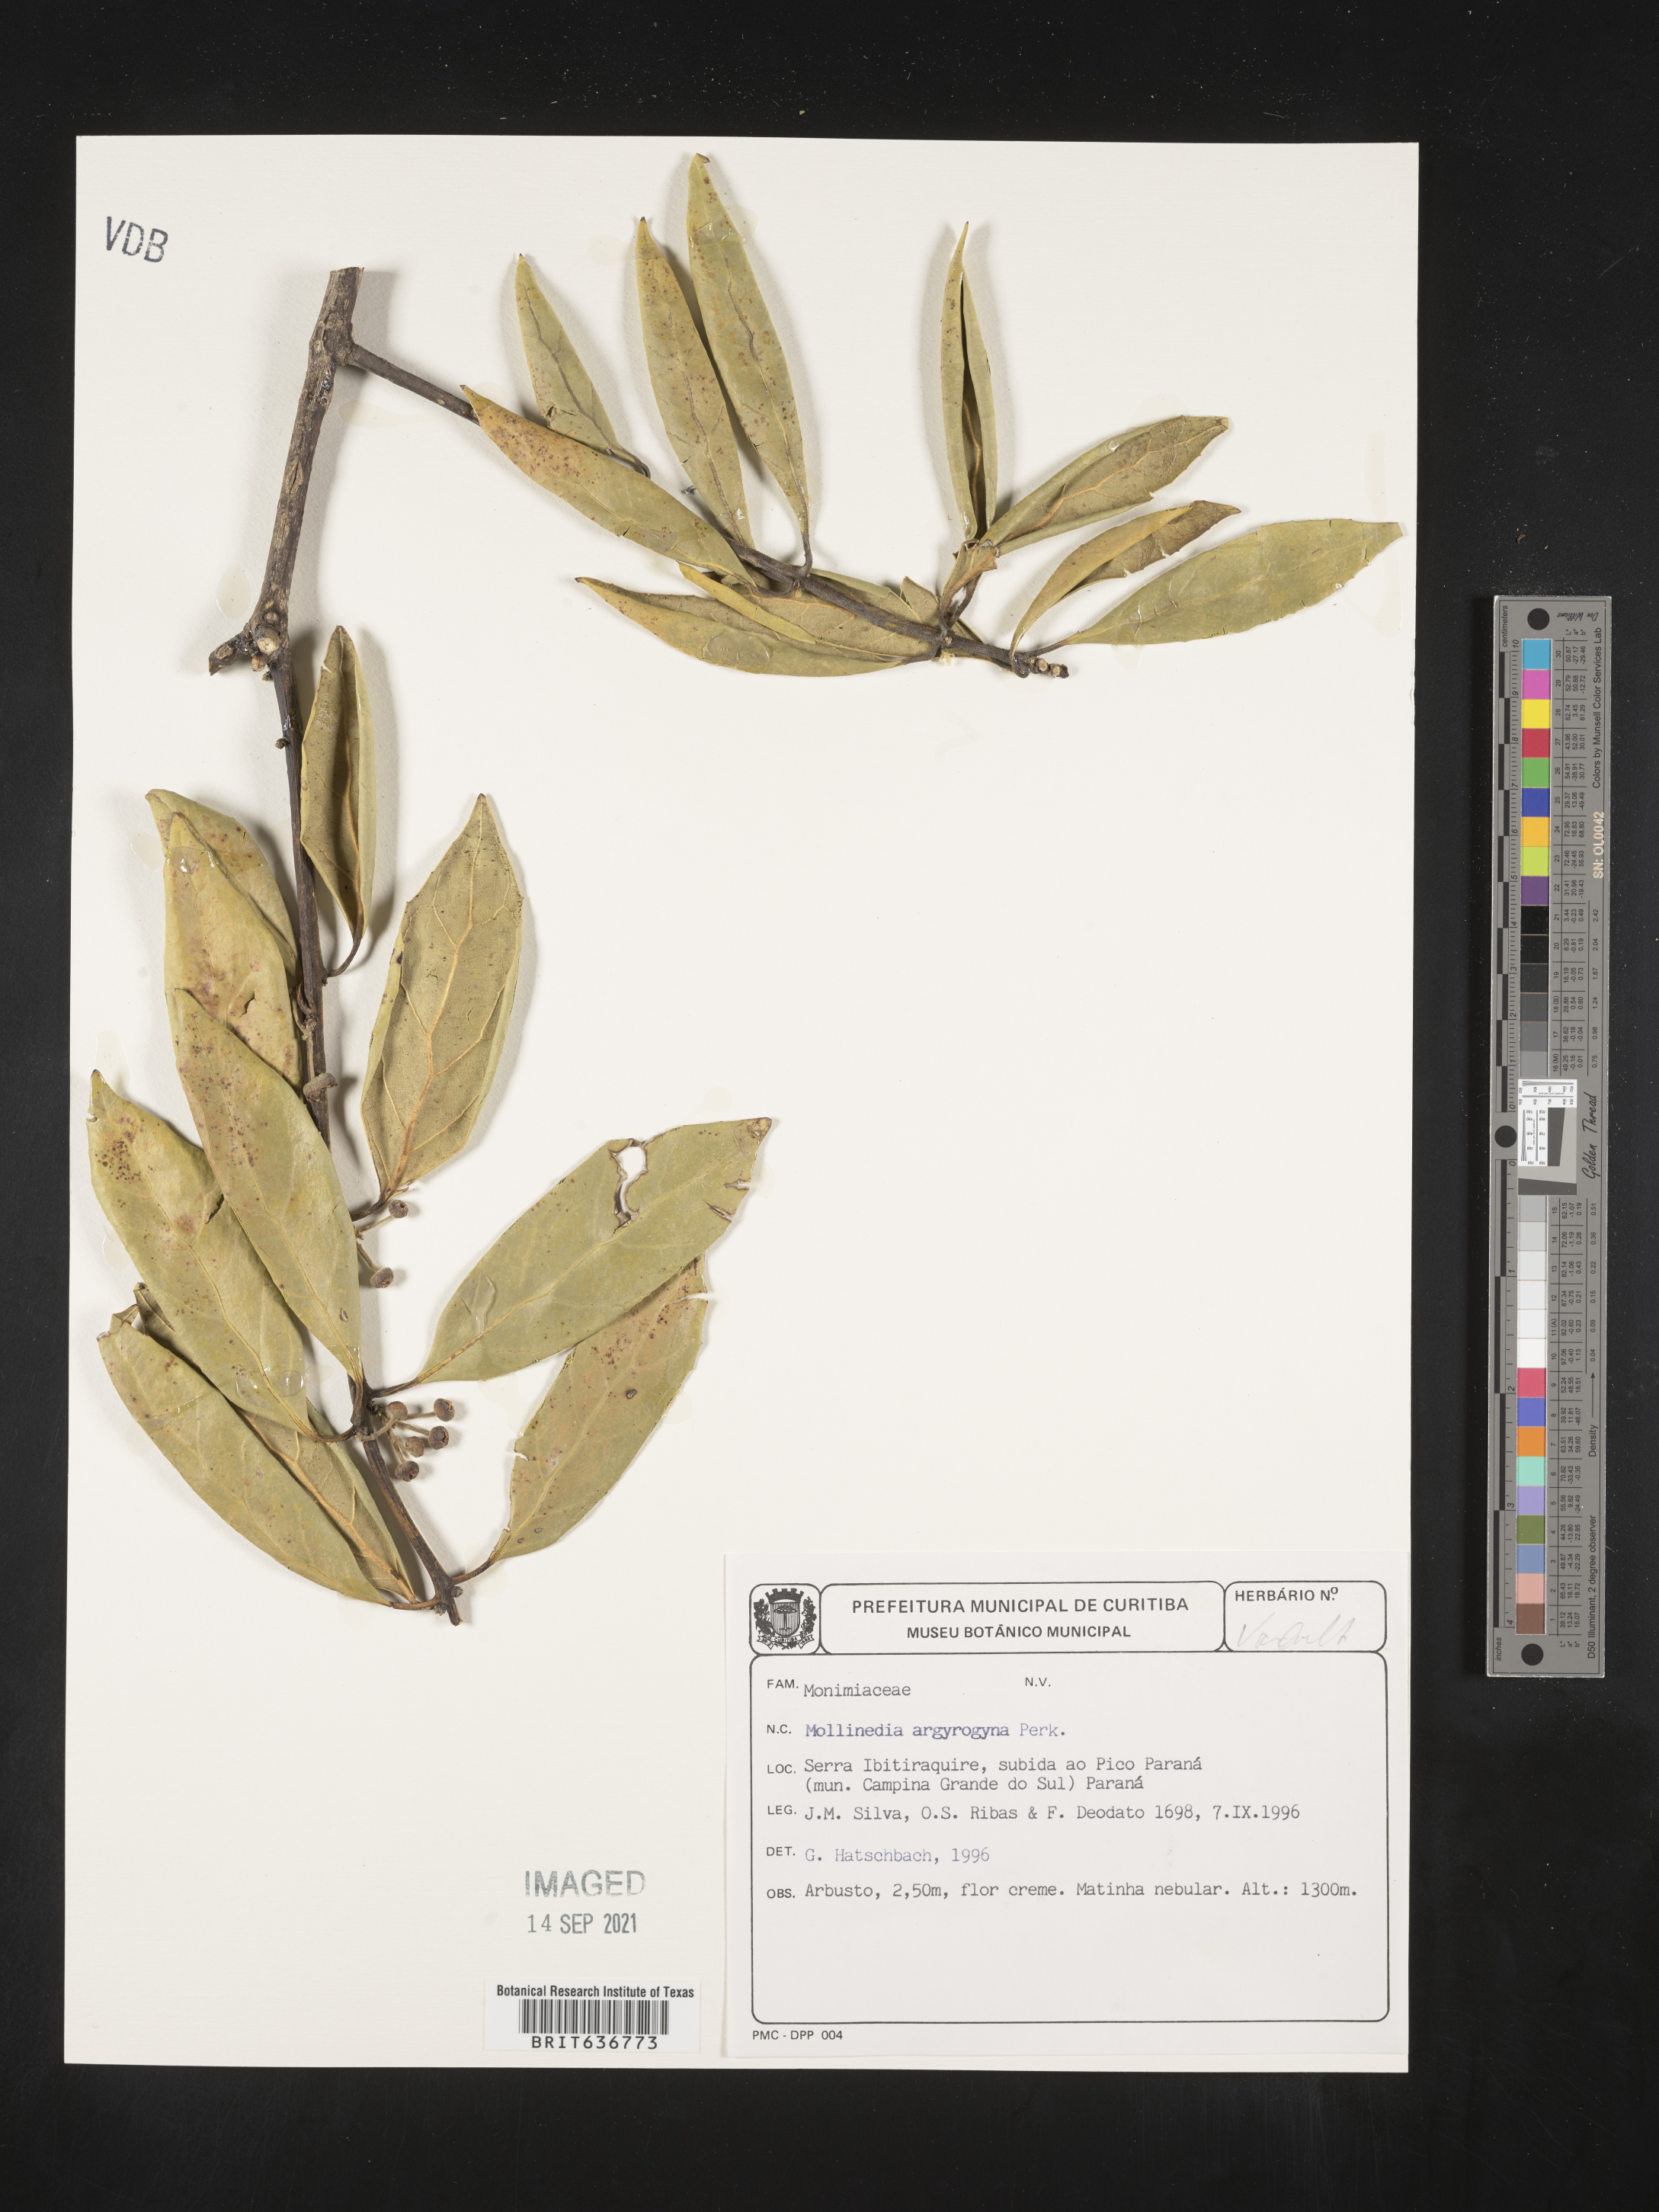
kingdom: Plantae
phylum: Tracheophyta
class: Magnoliopsida
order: Laurales
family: Monimiaceae
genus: Mollinedia
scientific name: Mollinedia
